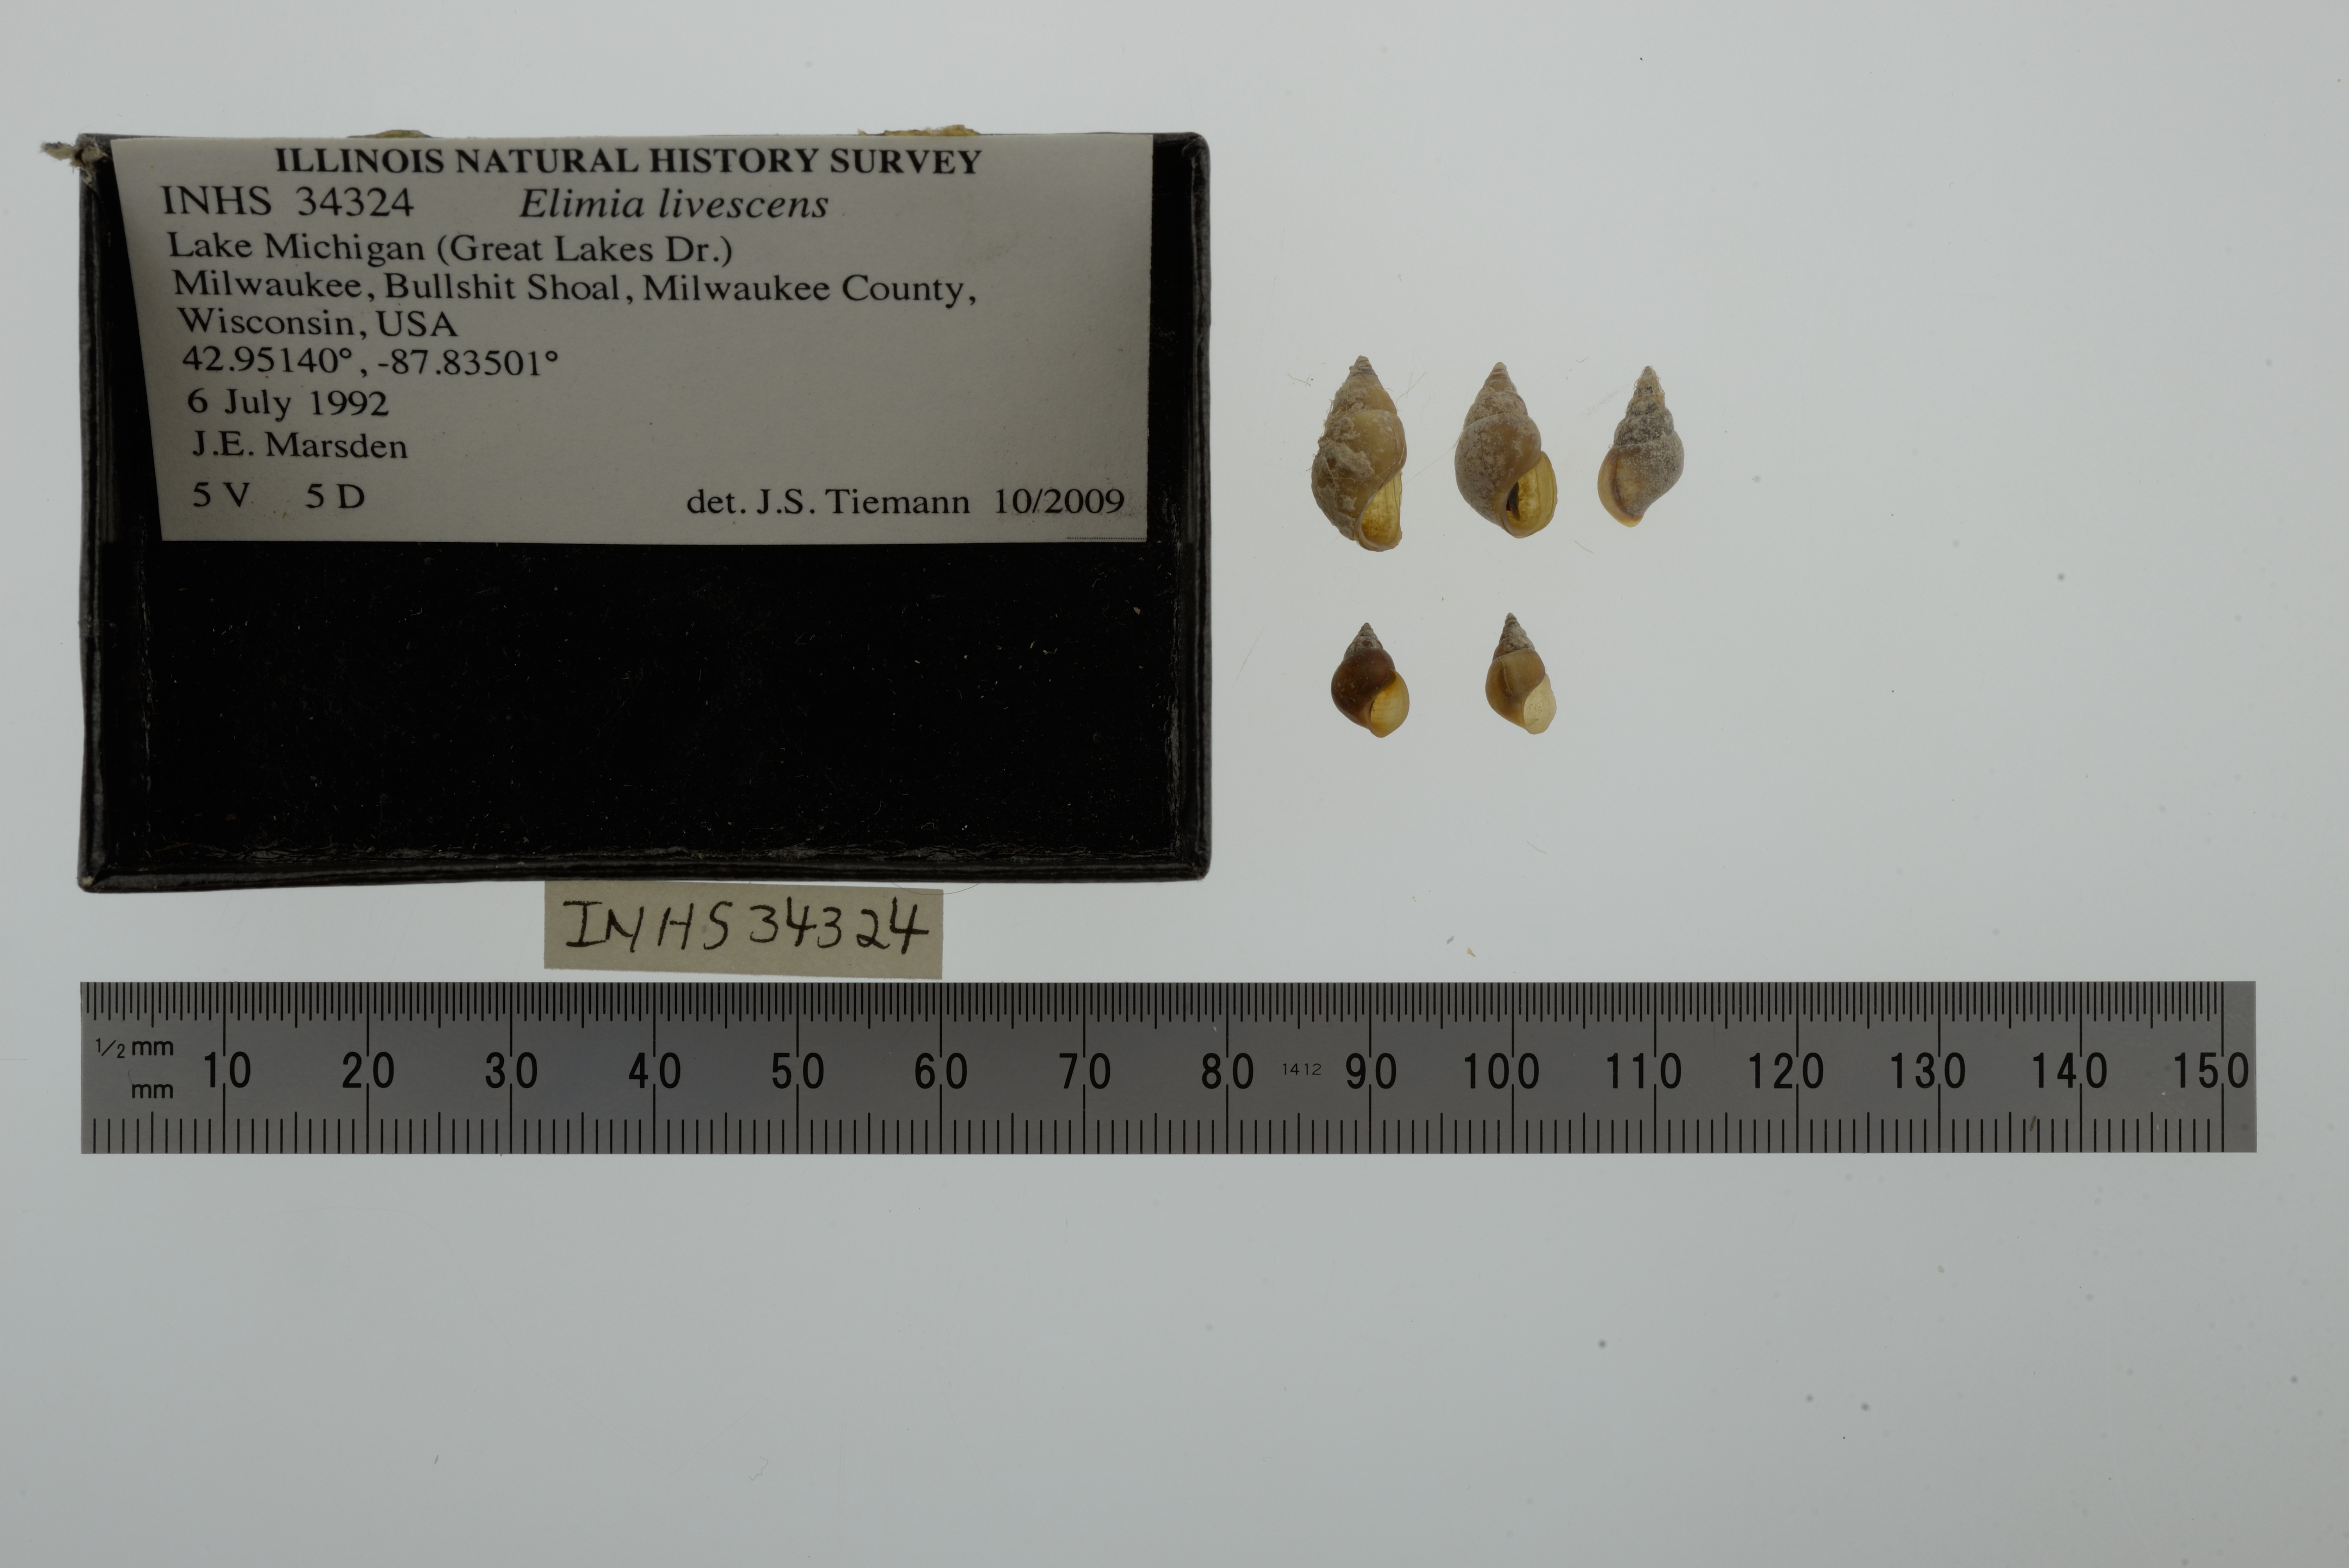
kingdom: Animalia
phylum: Mollusca
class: Gastropoda
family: Pleuroceridae
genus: Elimia
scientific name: Elimia livescens
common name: Liver elimia
